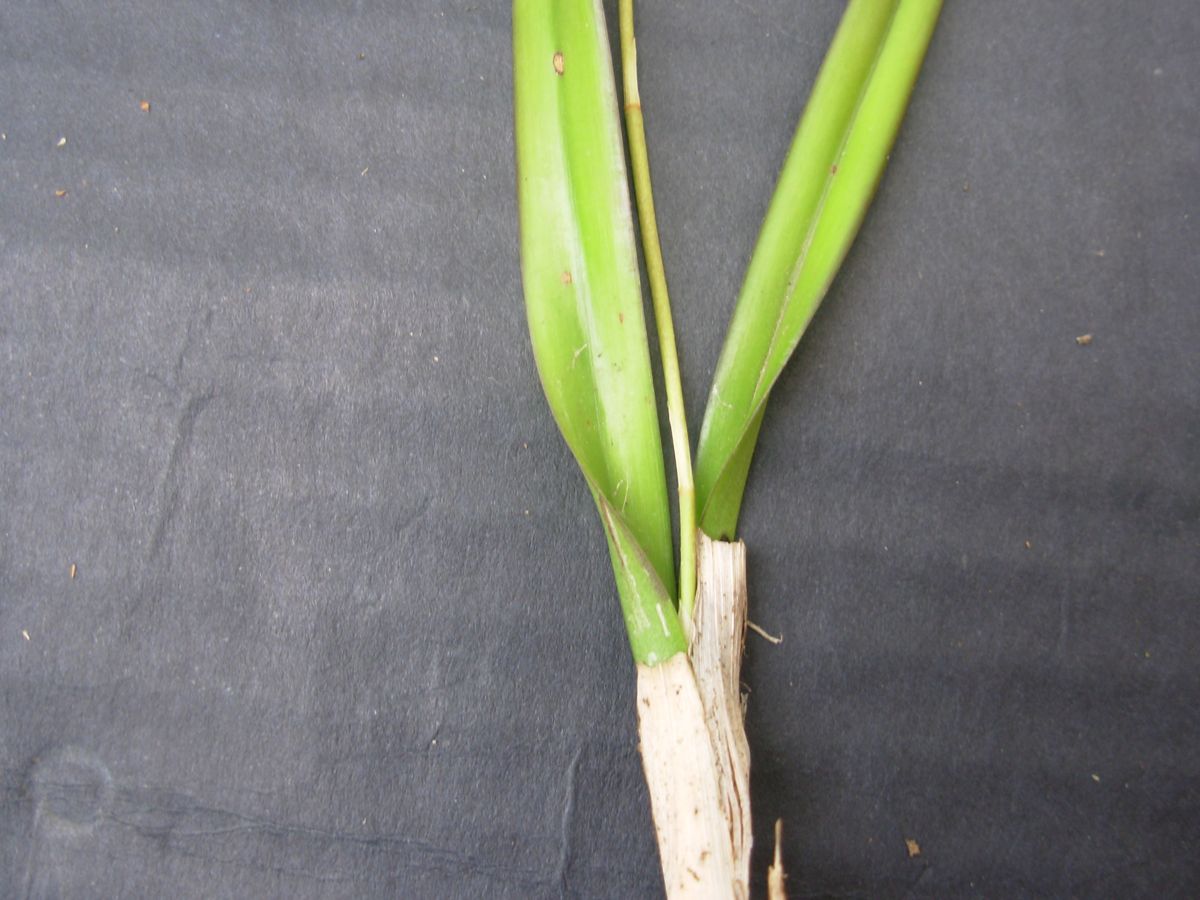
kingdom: Plantae
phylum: Tracheophyta
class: Liliopsida
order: Asparagales
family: Orchidaceae
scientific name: Orchidaceae
